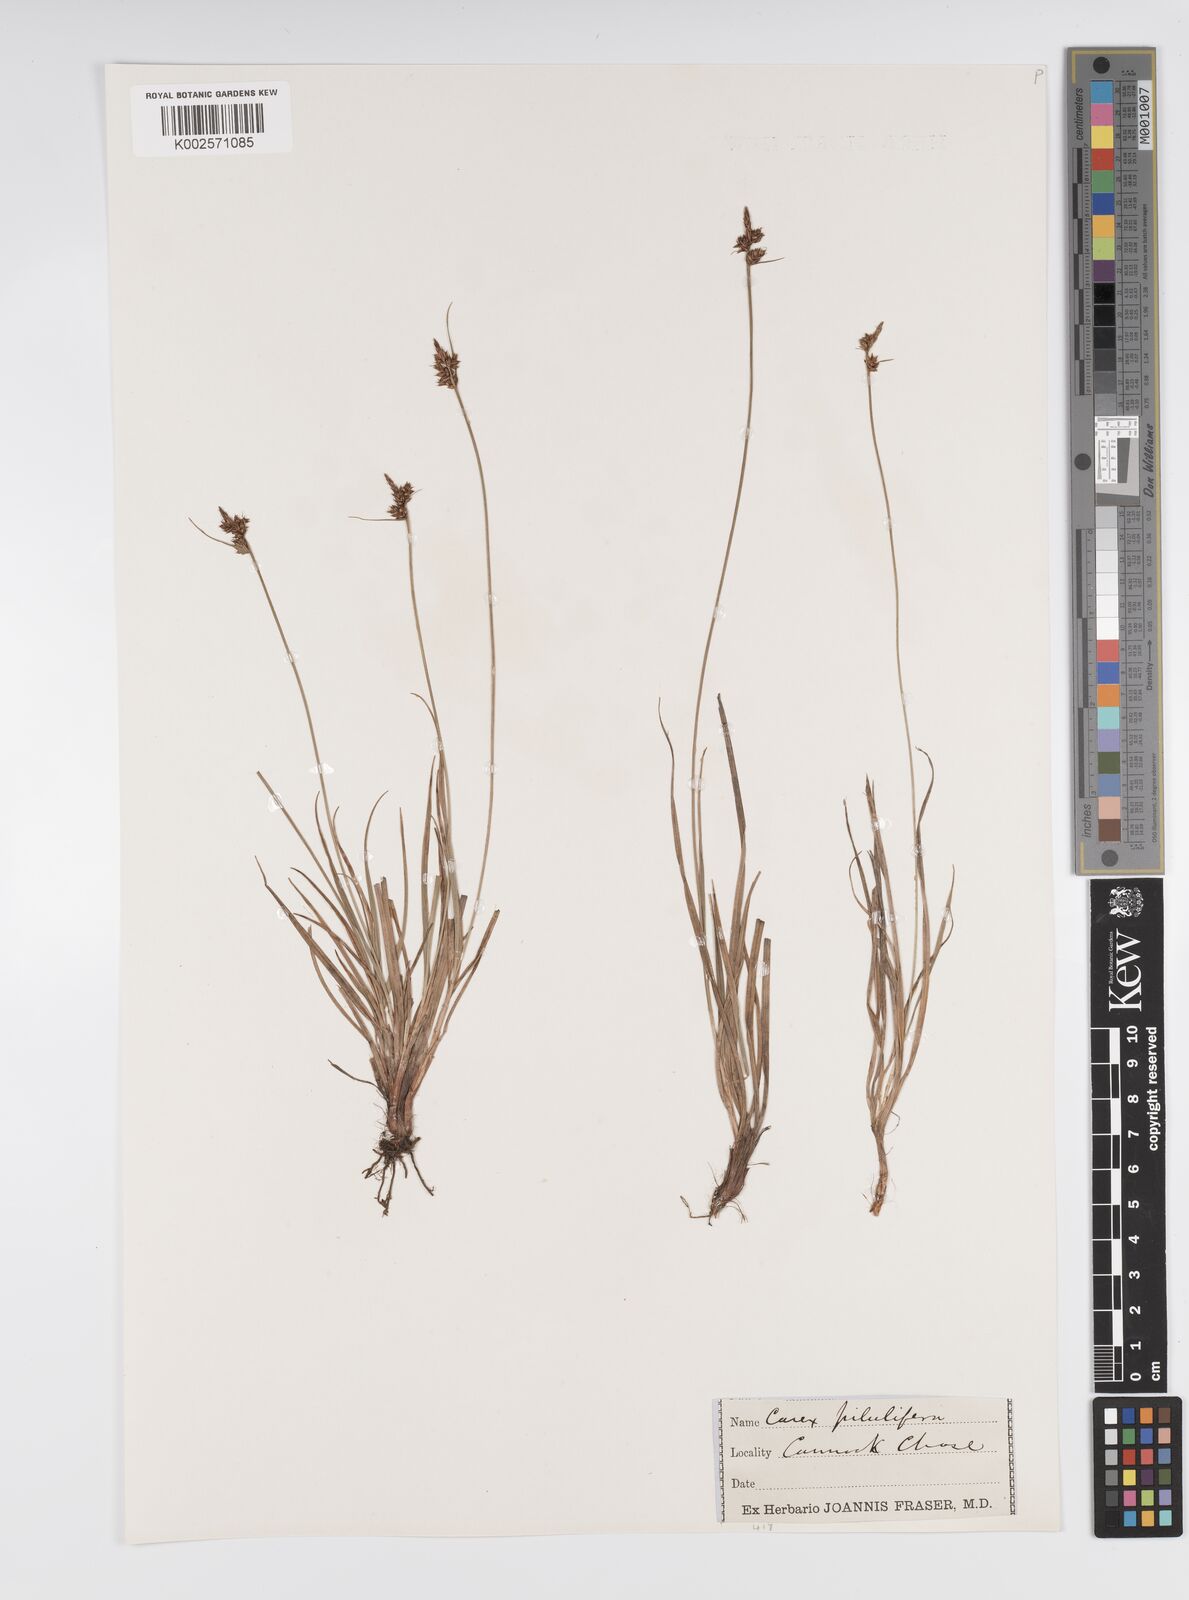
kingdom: Plantae
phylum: Tracheophyta
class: Liliopsida
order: Poales
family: Cyperaceae
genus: Carex
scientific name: Carex pilulifera
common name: Pill sedge
